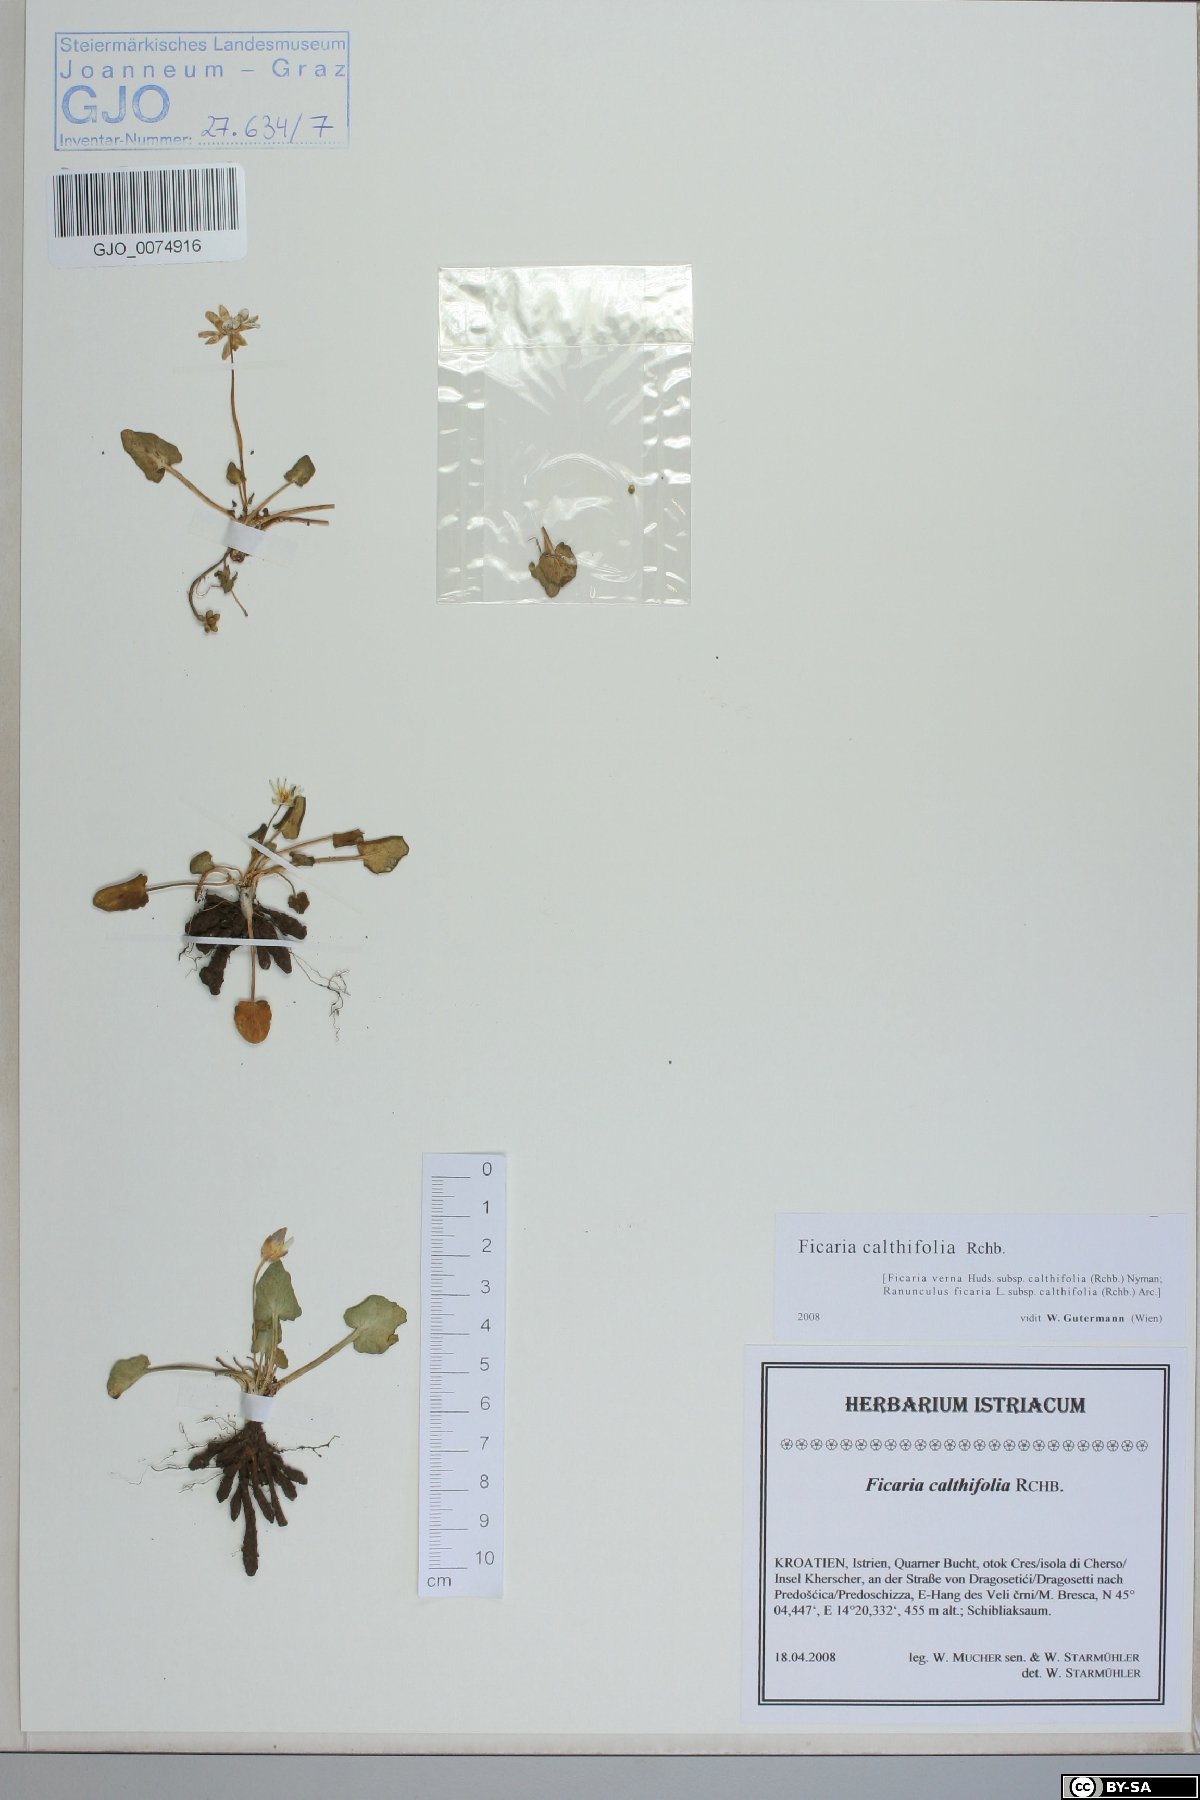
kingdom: Plantae
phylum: Tracheophyta
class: Magnoliopsida
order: Ranunculales
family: Ranunculaceae
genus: Ficaria
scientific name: Ficaria calthifolia
